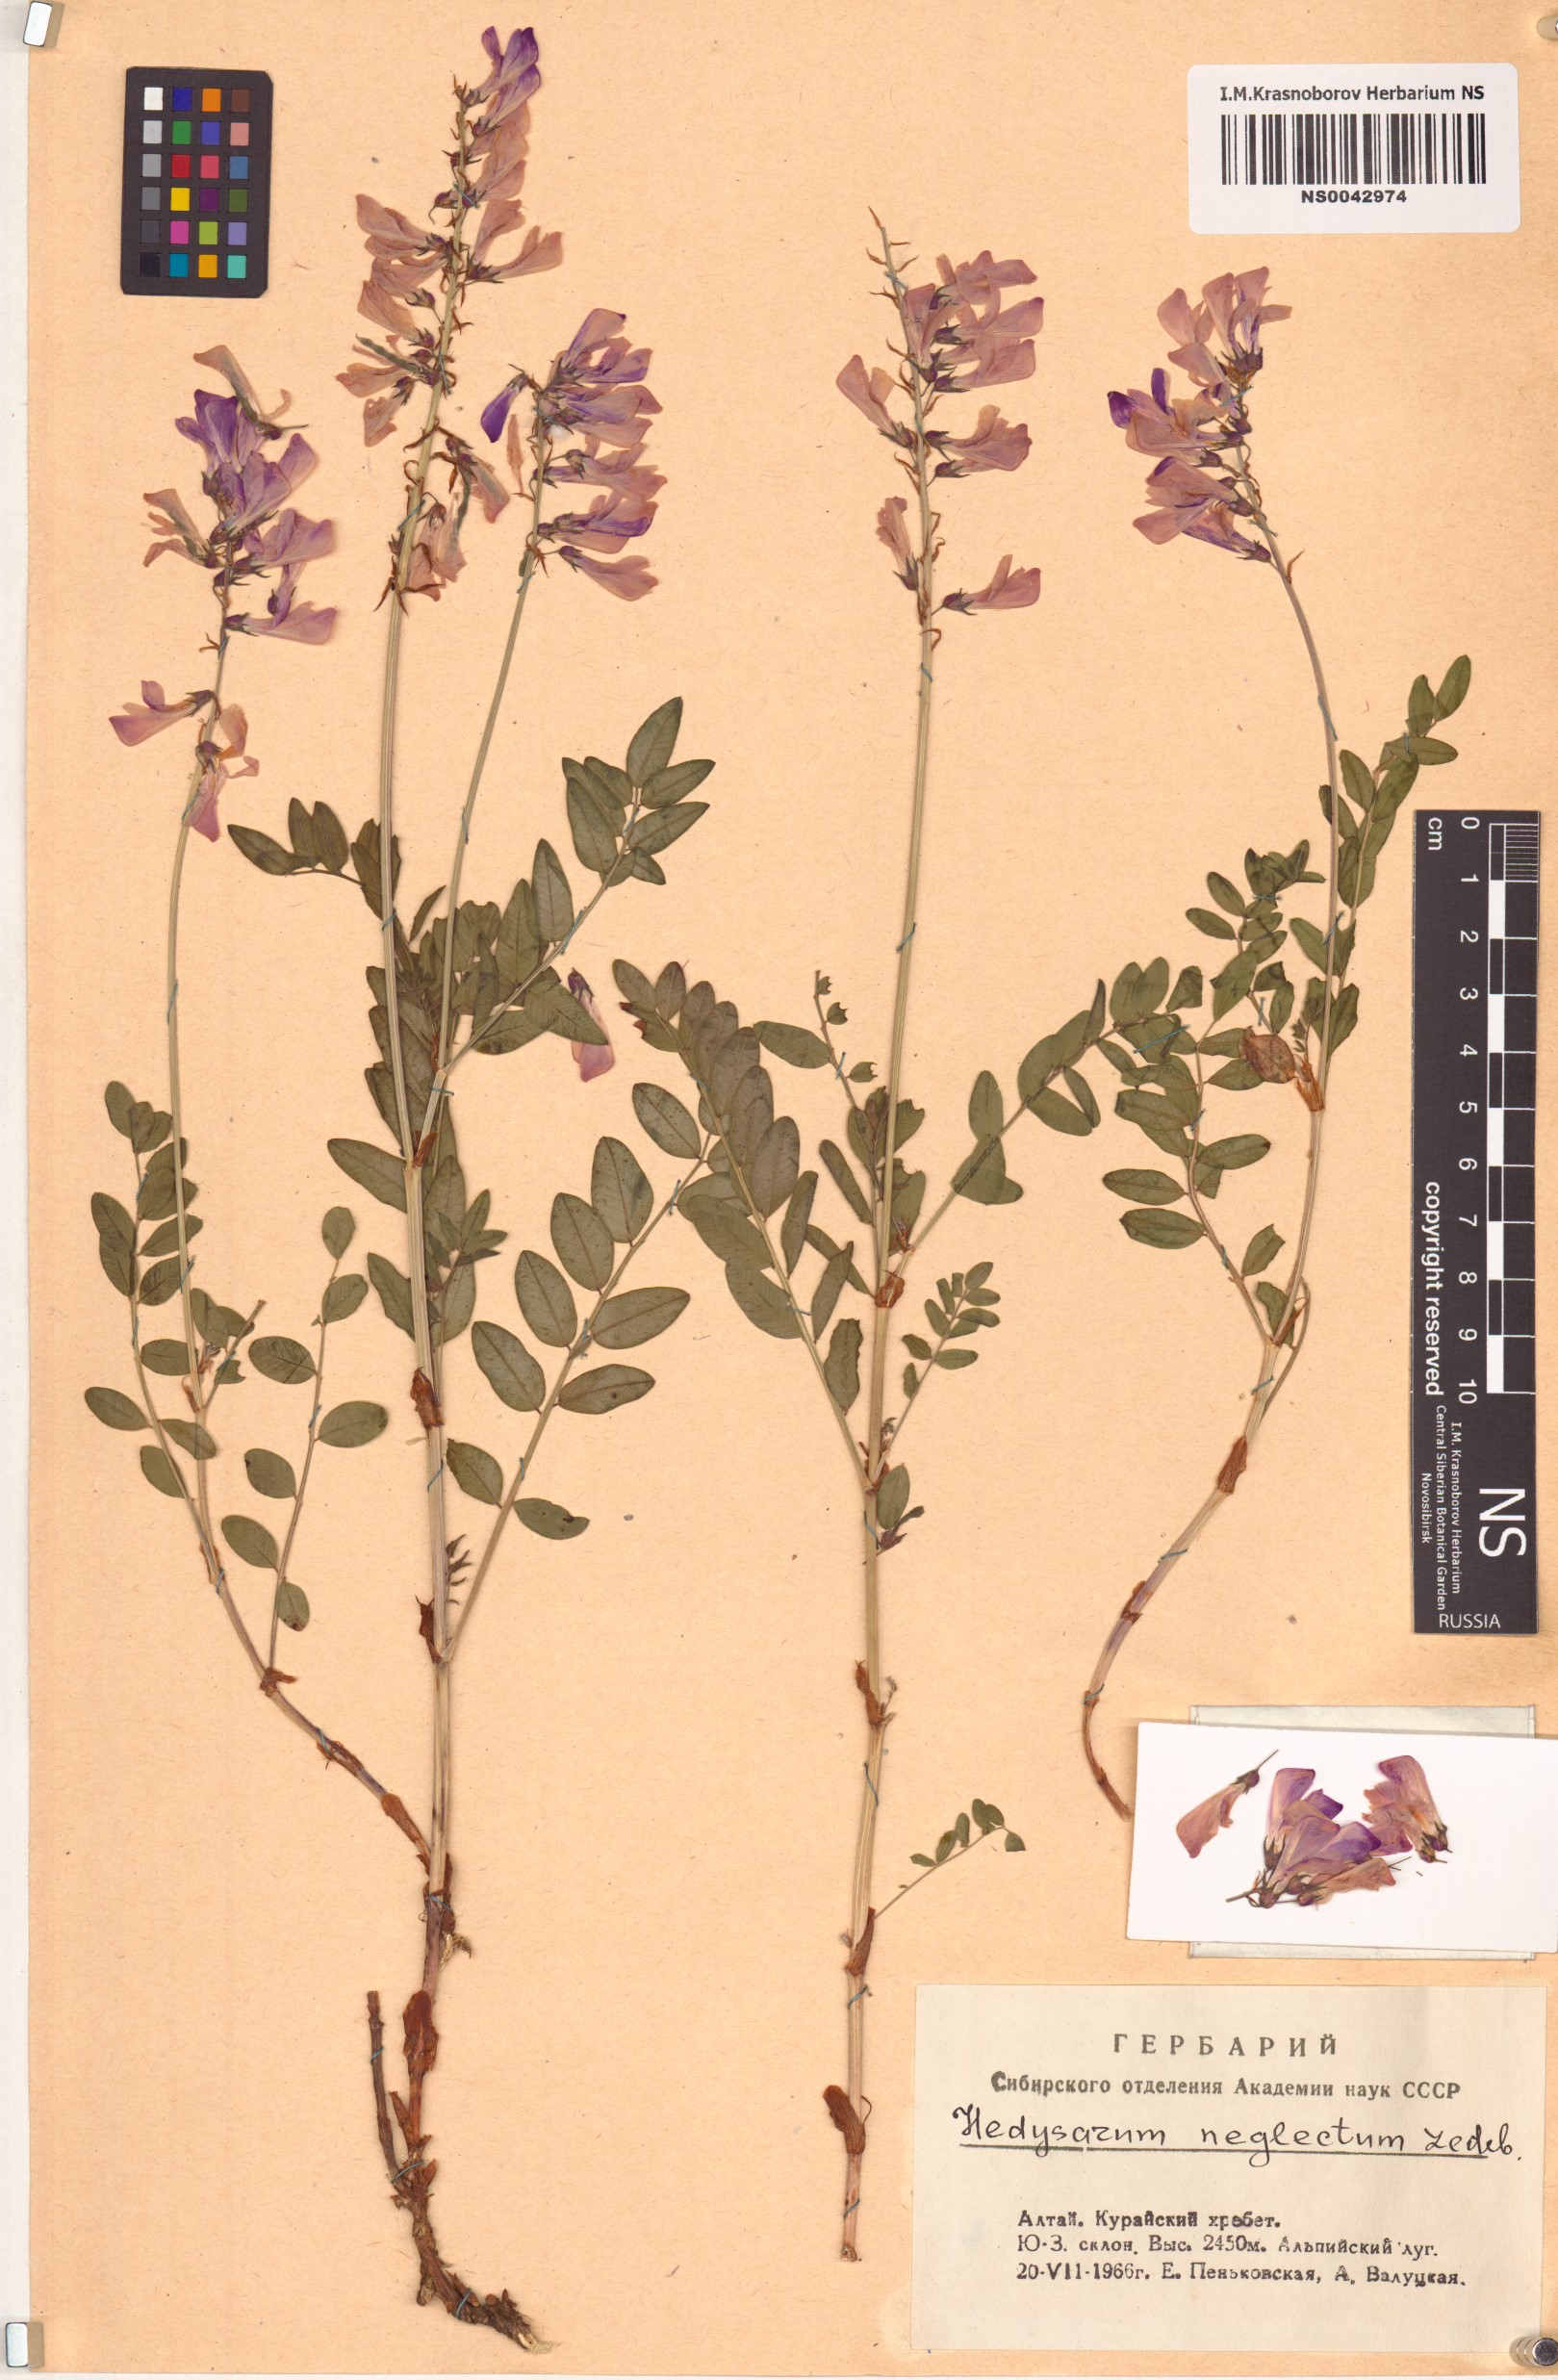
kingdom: Plantae
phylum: Tracheophyta
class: Magnoliopsida
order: Fabales
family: Fabaceae
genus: Hedysarum
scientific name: Hedysarum neglectum
